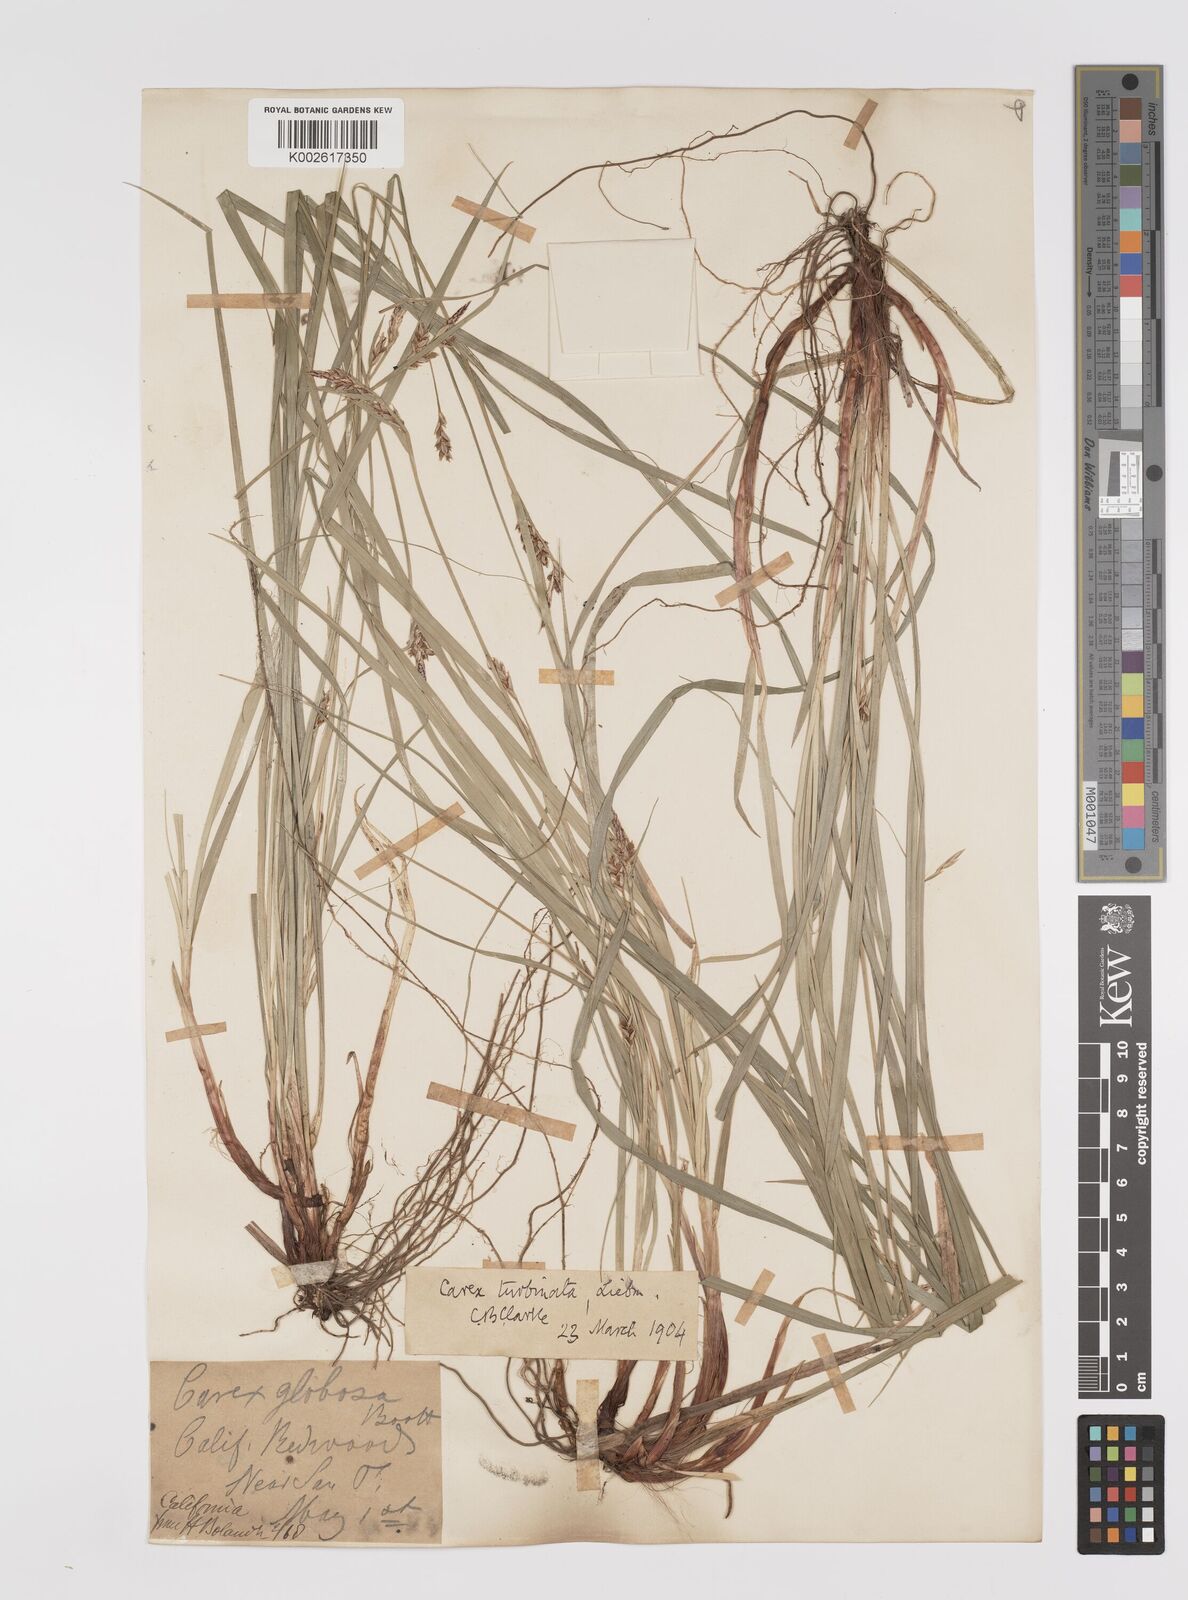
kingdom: Plantae
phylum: Tracheophyta
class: Liliopsida
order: Poales
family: Cyperaceae
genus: Carex
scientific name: Carex turbinata
